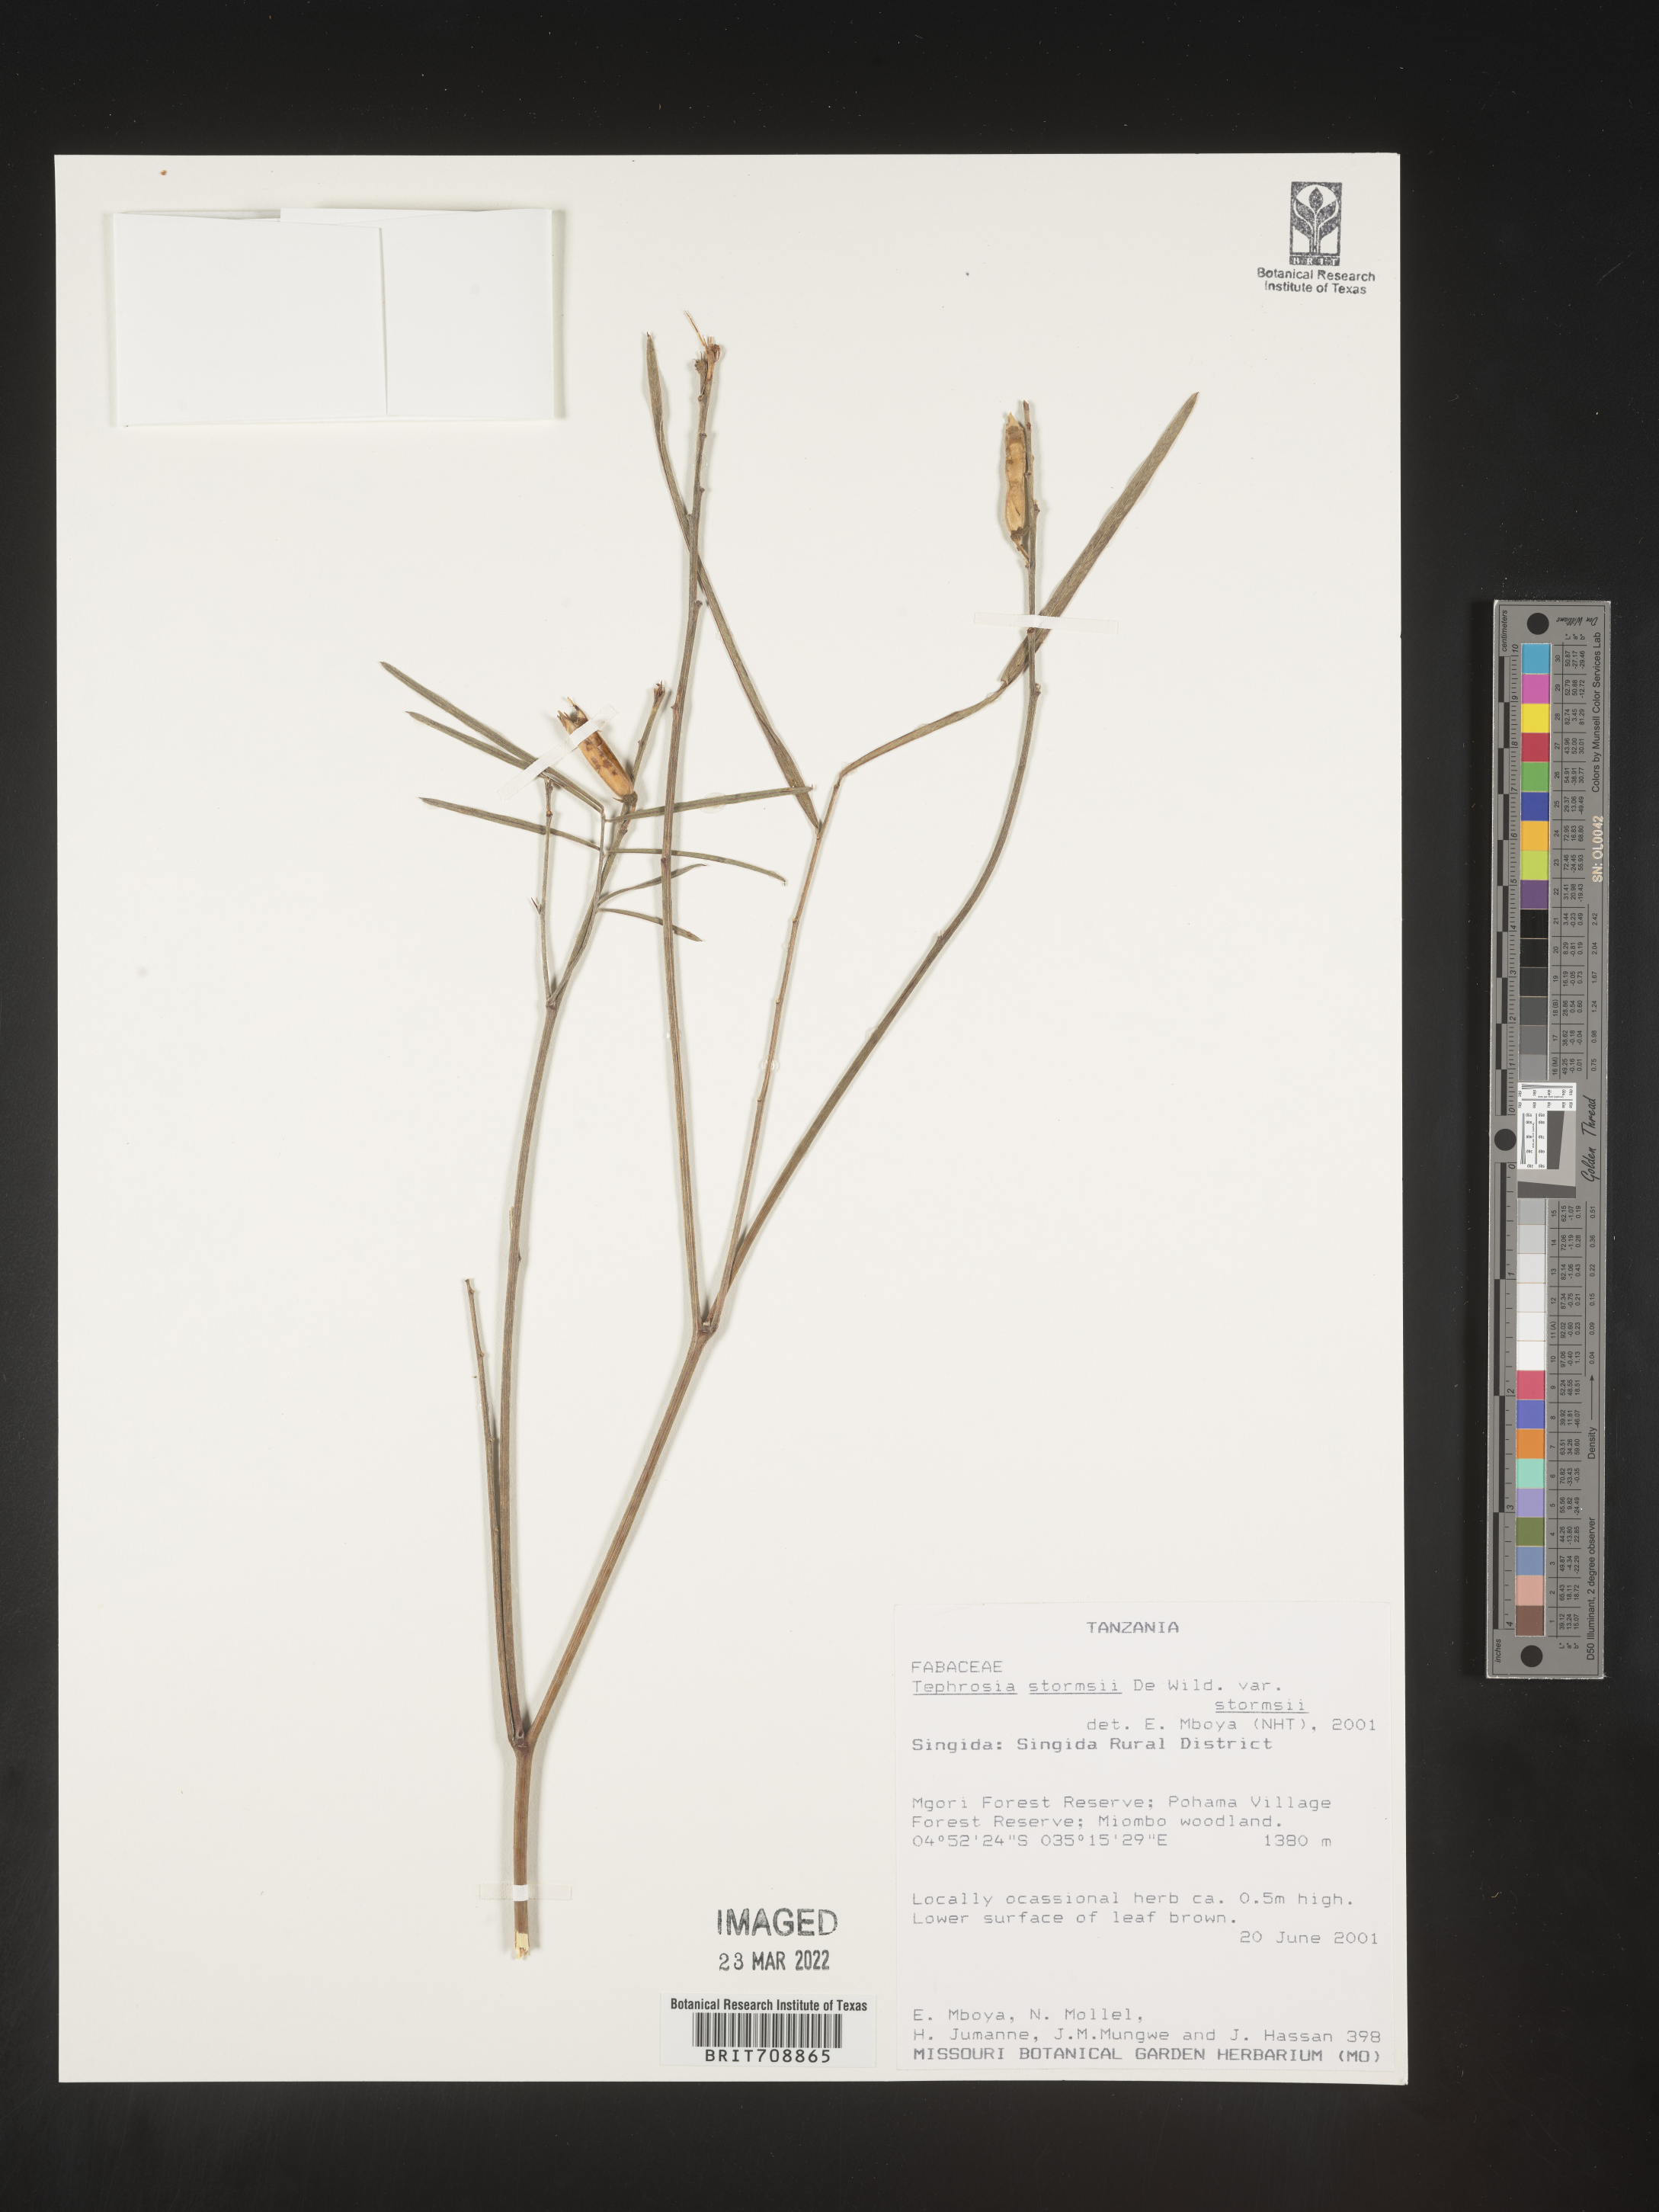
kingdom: Plantae
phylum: Tracheophyta
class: Magnoliopsida
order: Fabales
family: Fabaceae
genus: Tephrosia
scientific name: Tephrosia
